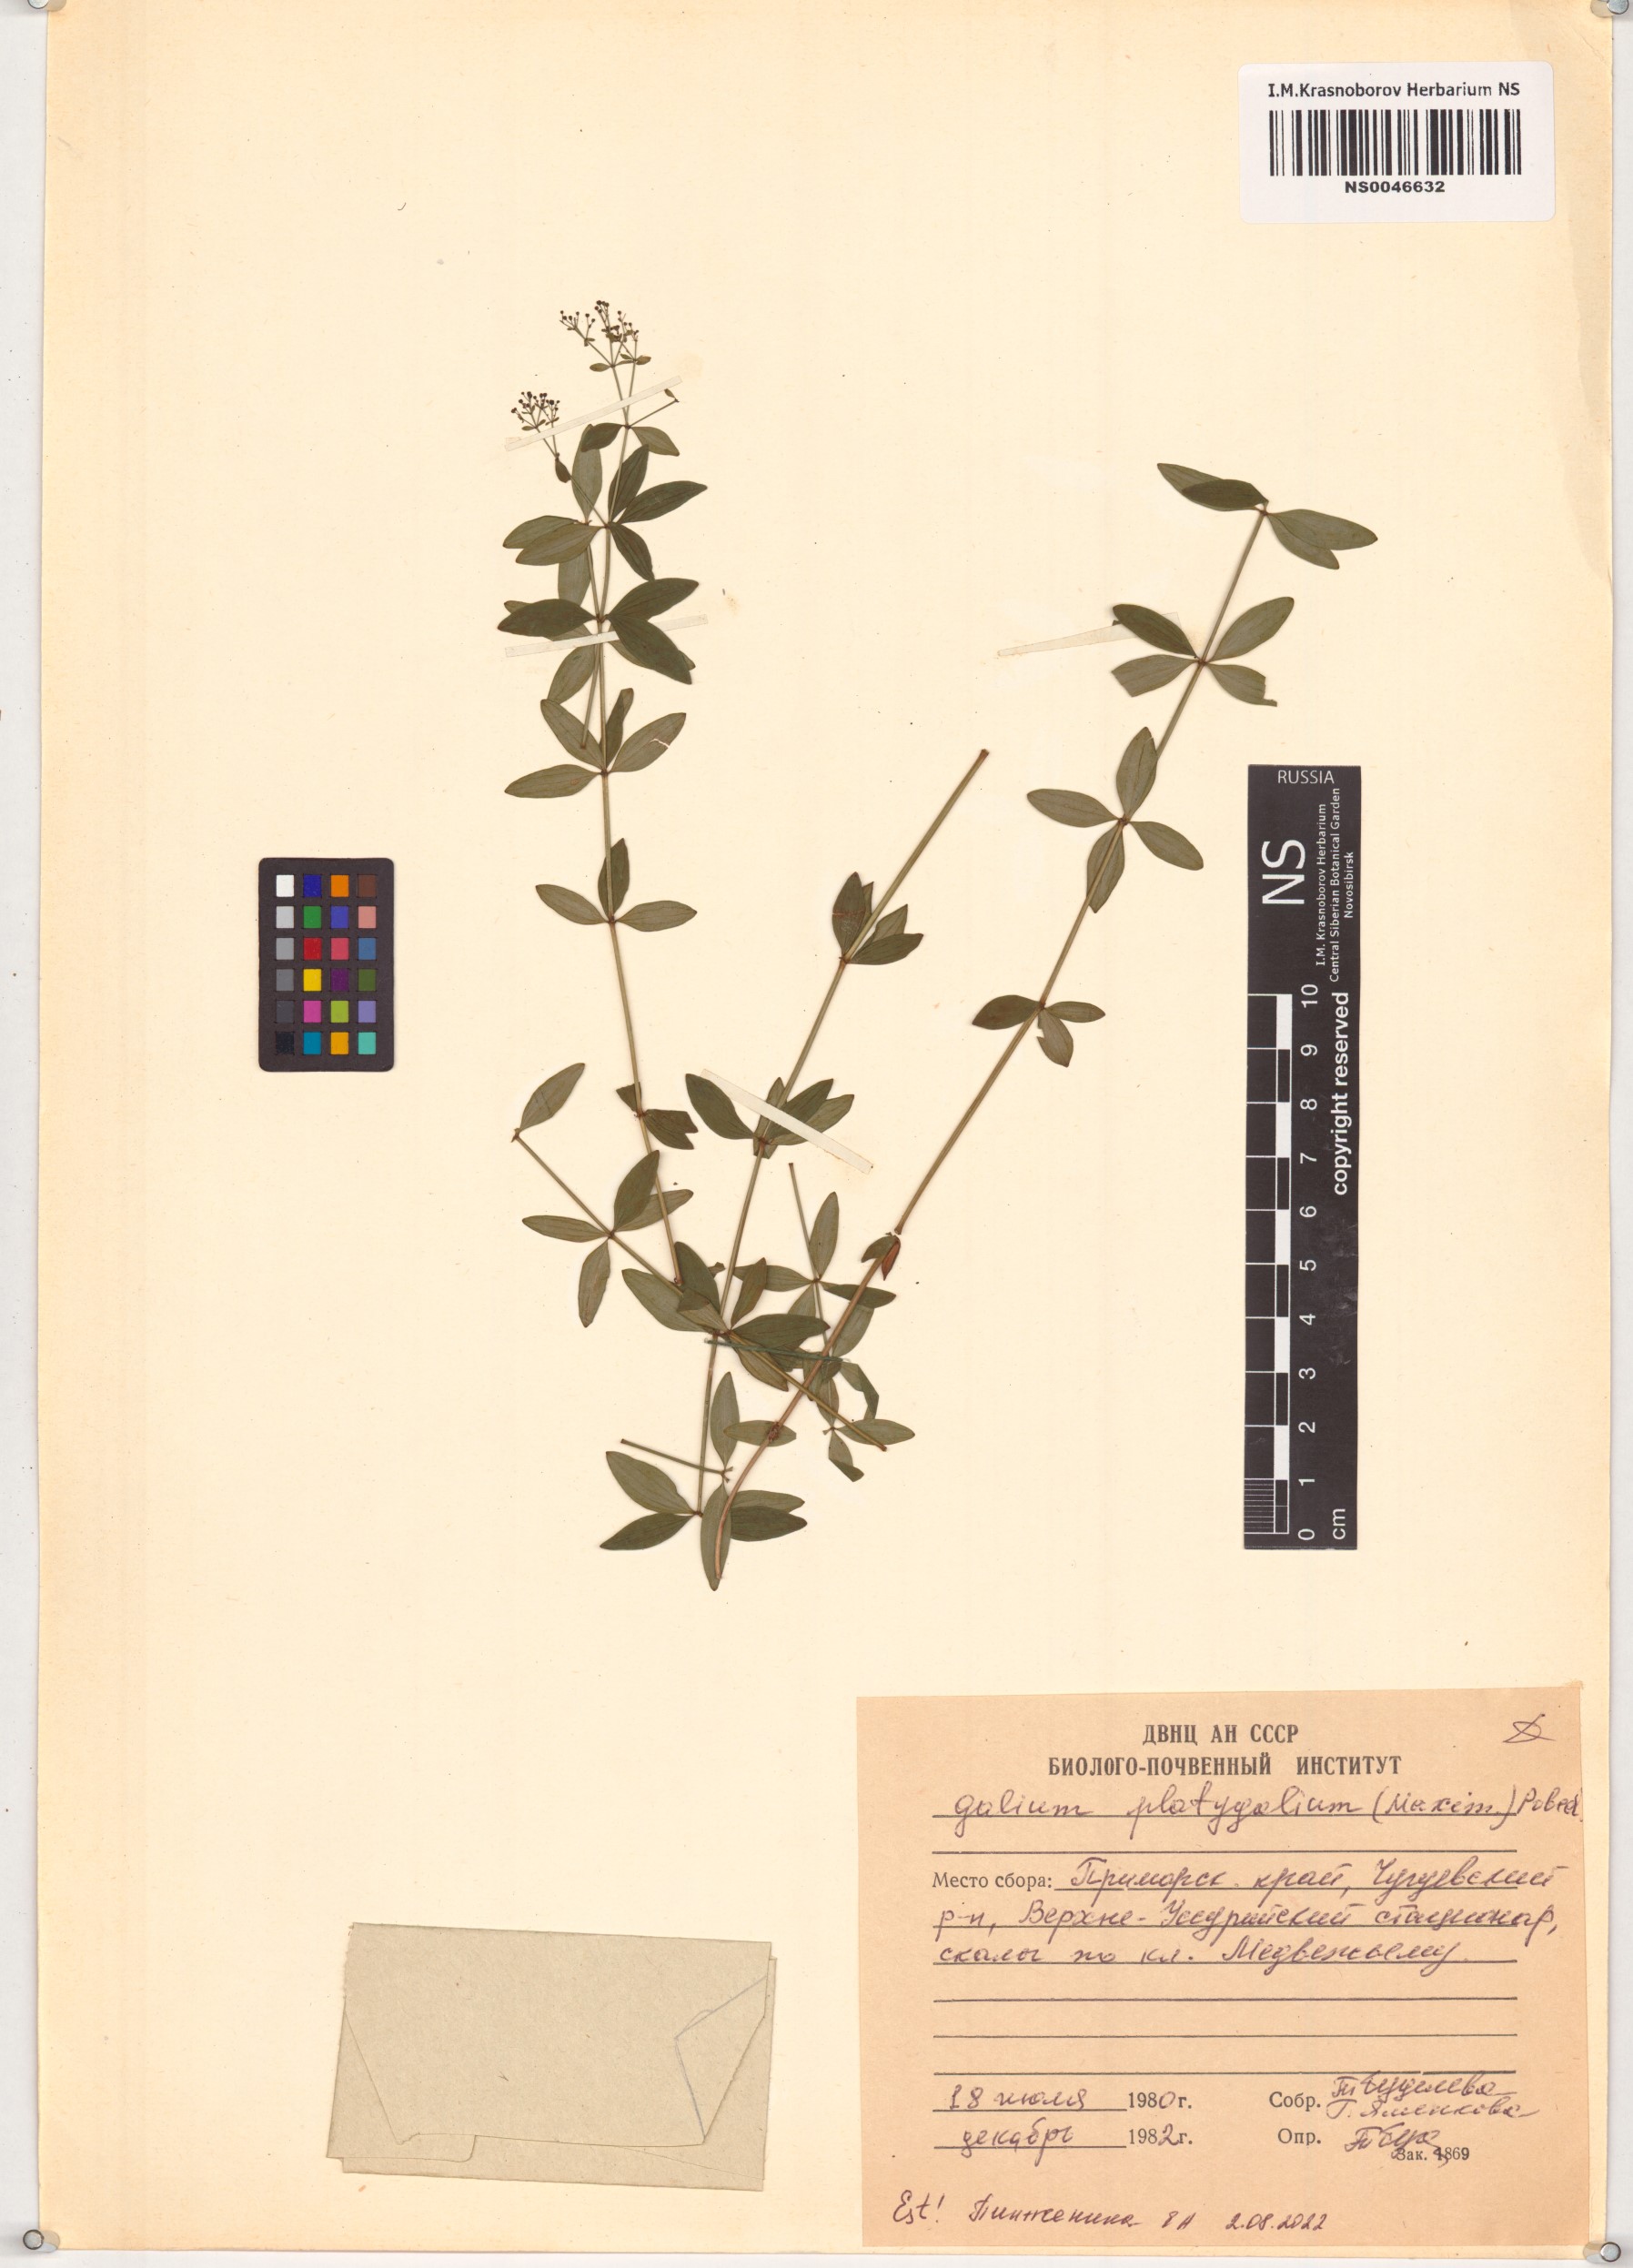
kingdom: Plantae
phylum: Tracheophyta
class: Magnoliopsida
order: Gentianales
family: Rubiaceae
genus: Galium
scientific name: Galium platygalium
